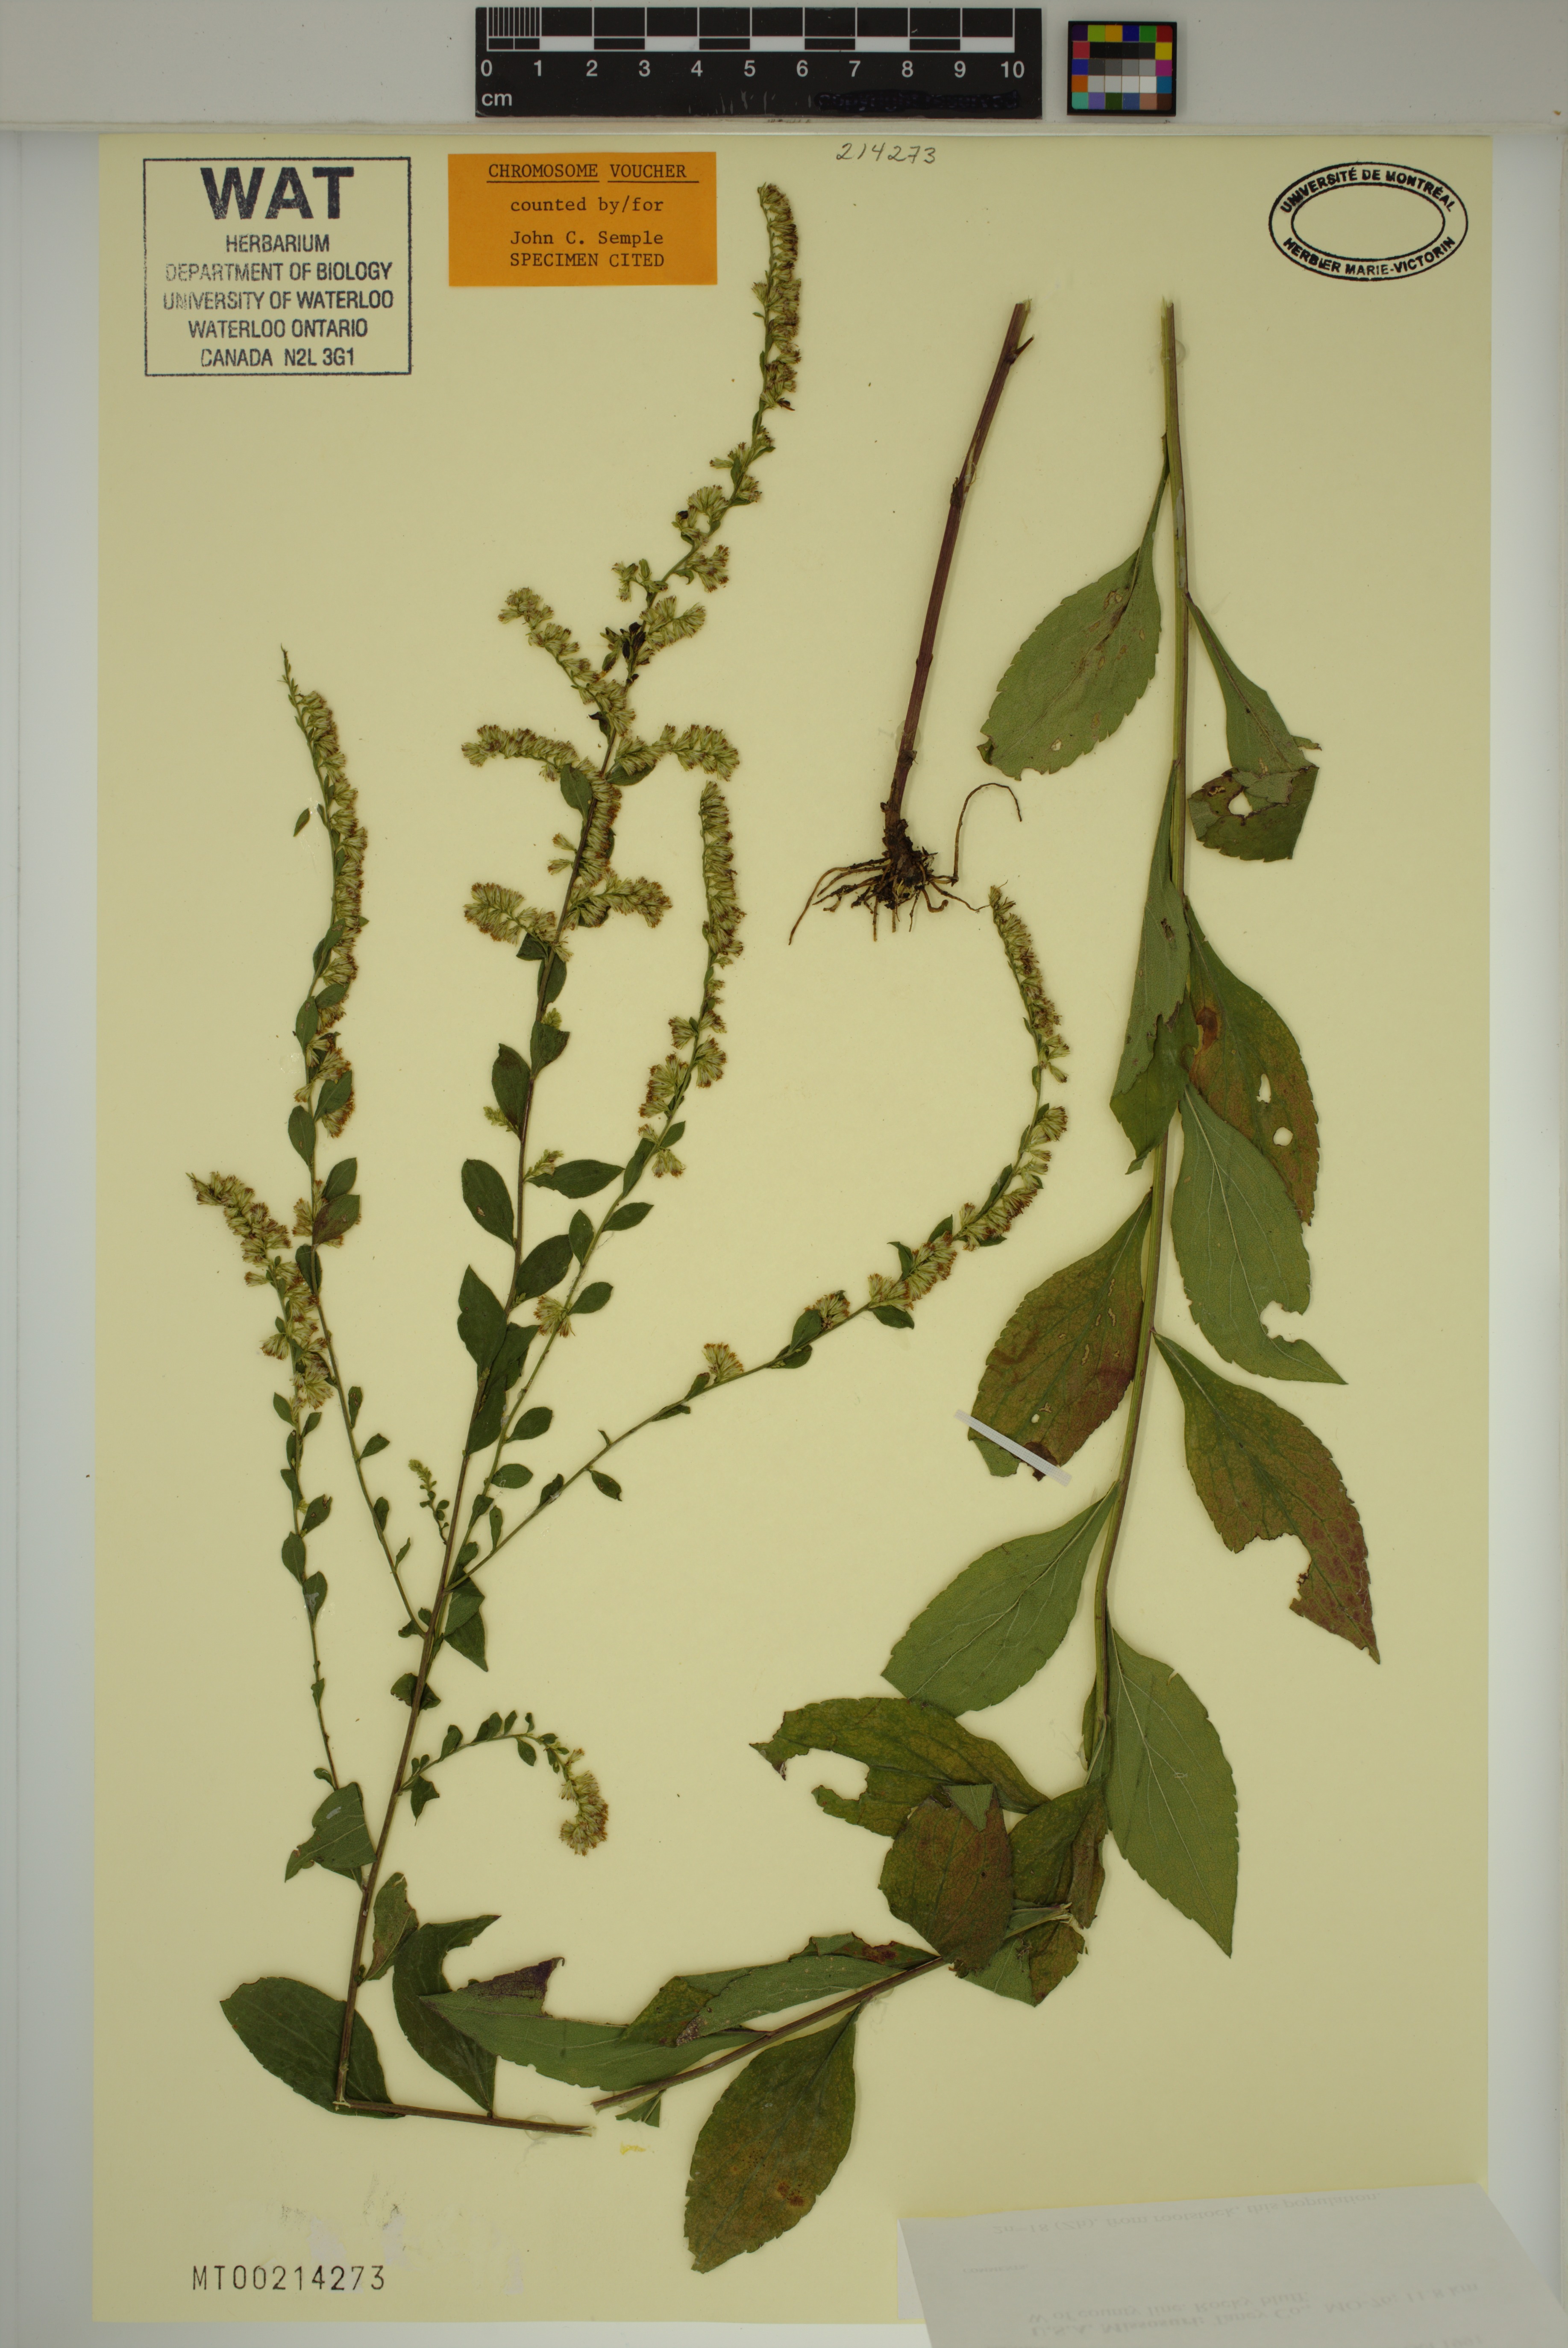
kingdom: Plantae
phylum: Tracheophyta
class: Magnoliopsida
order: Asterales
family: Asteraceae
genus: Solidago
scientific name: Solidago ulmifolia
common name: Elm-leaf goldenrod
